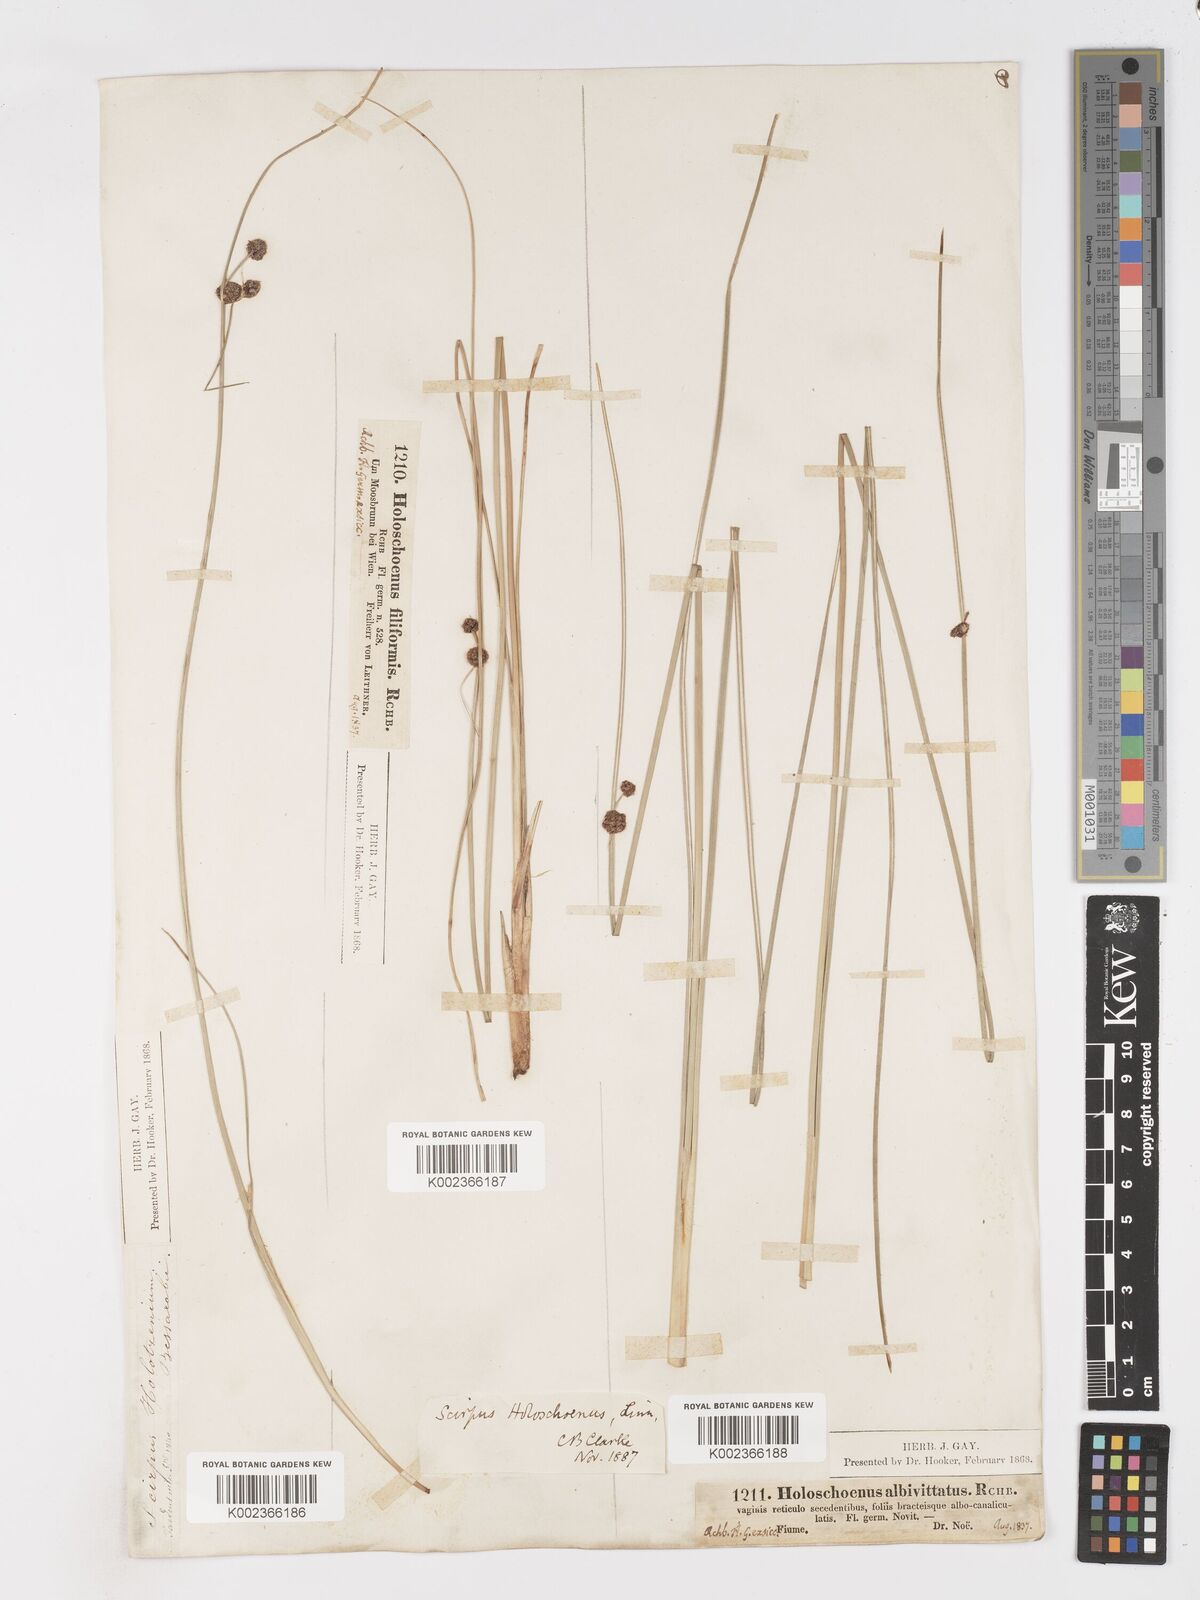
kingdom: Plantae
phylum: Tracheophyta
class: Liliopsida
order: Poales
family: Cyperaceae
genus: Scirpoides
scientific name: Scirpoides holoschoenus
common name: Round-headed club-rush
